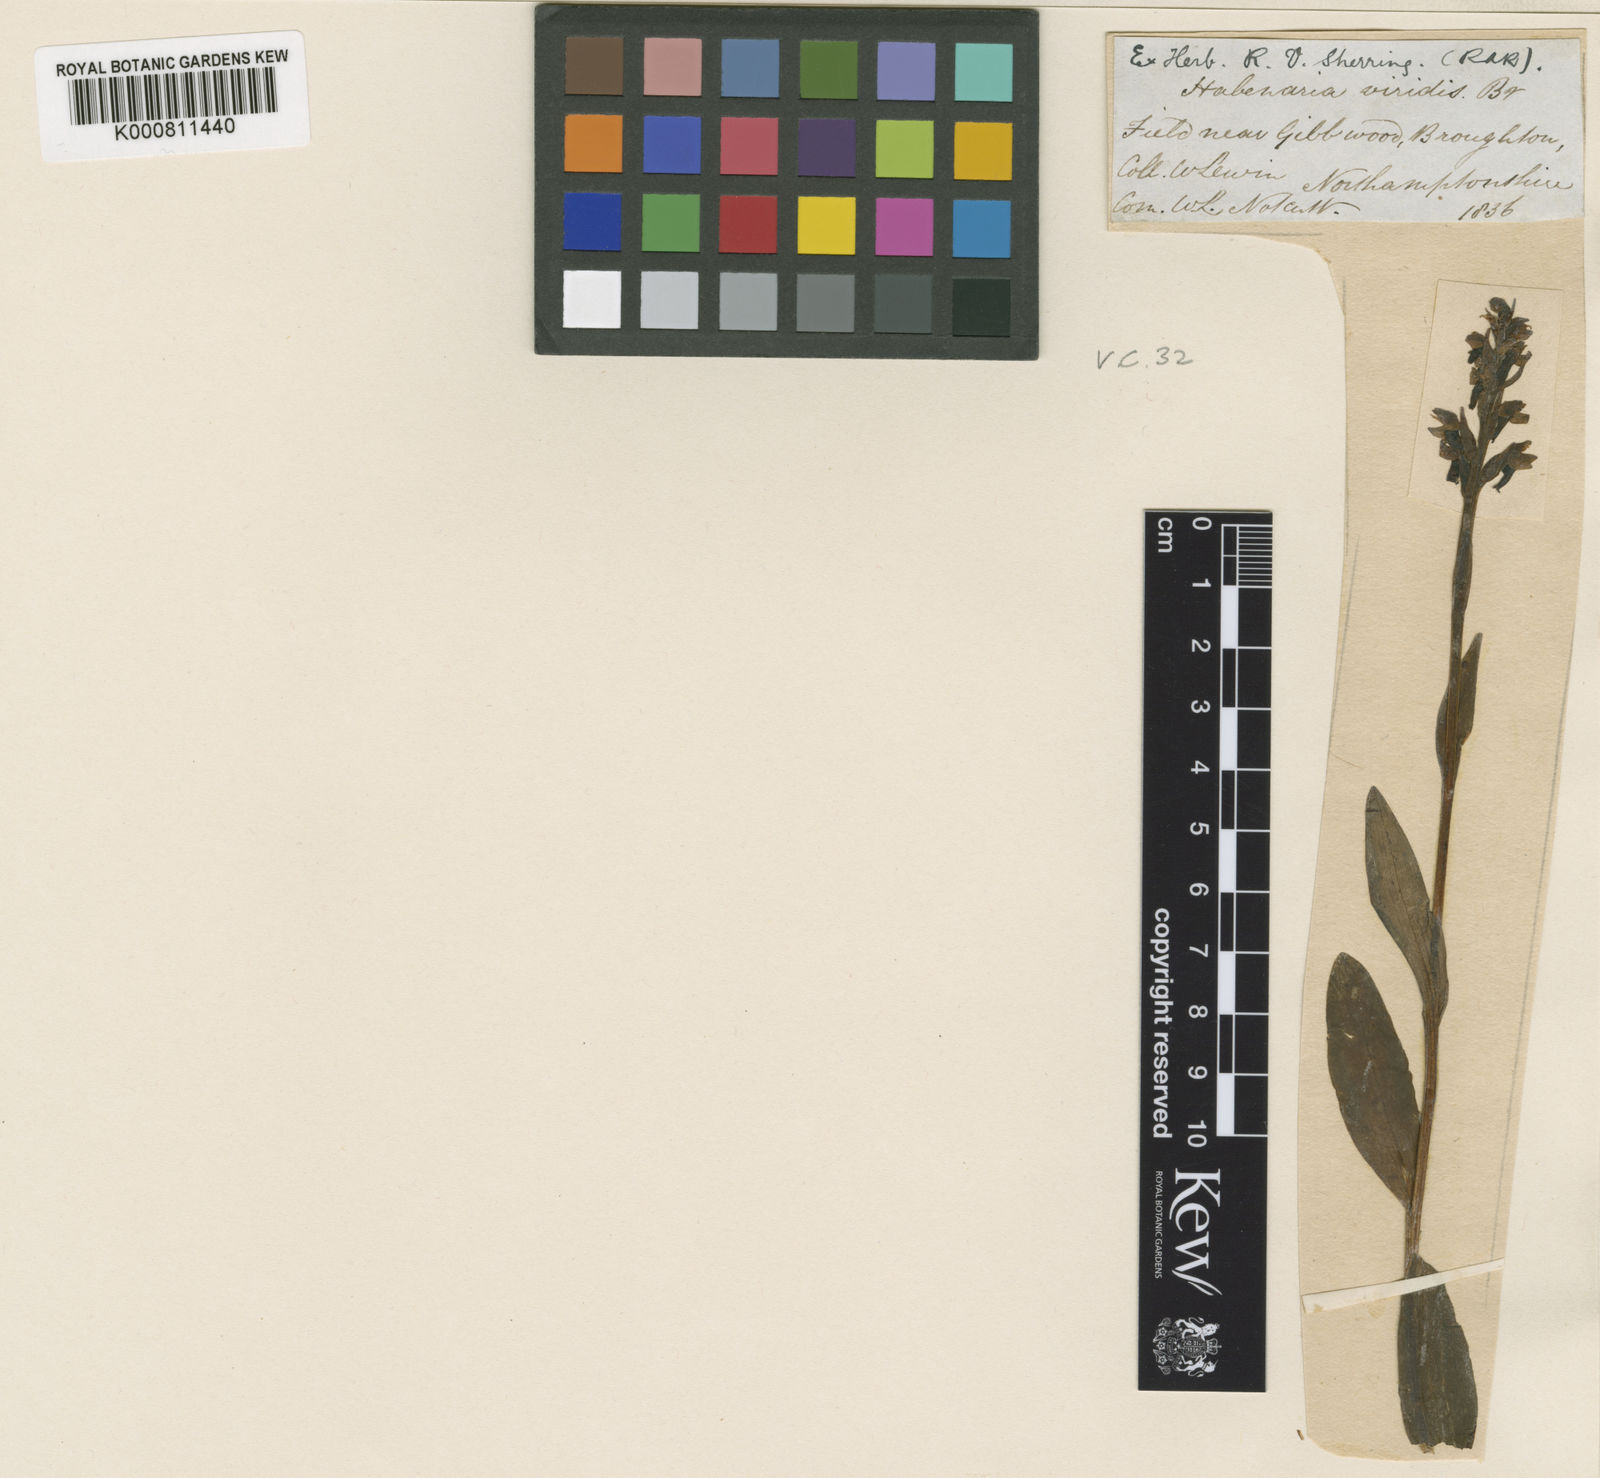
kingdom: Plantae
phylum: Tracheophyta
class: Liliopsida
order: Asparagales
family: Orchidaceae
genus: Dactylorhiza
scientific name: Dactylorhiza viridis
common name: Longbract frog orchid
